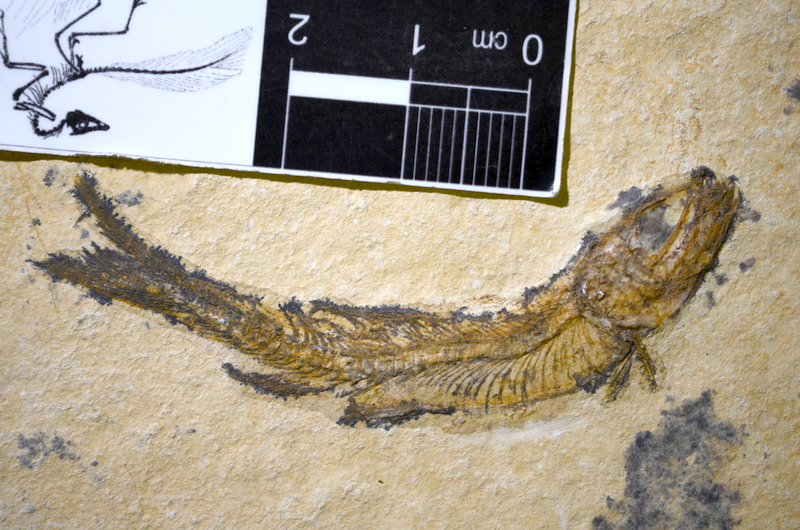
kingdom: Animalia
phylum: Chordata
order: Salmoniformes
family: Orthogonikleithridae
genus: Leptolepides
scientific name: Leptolepides sprattiformis
